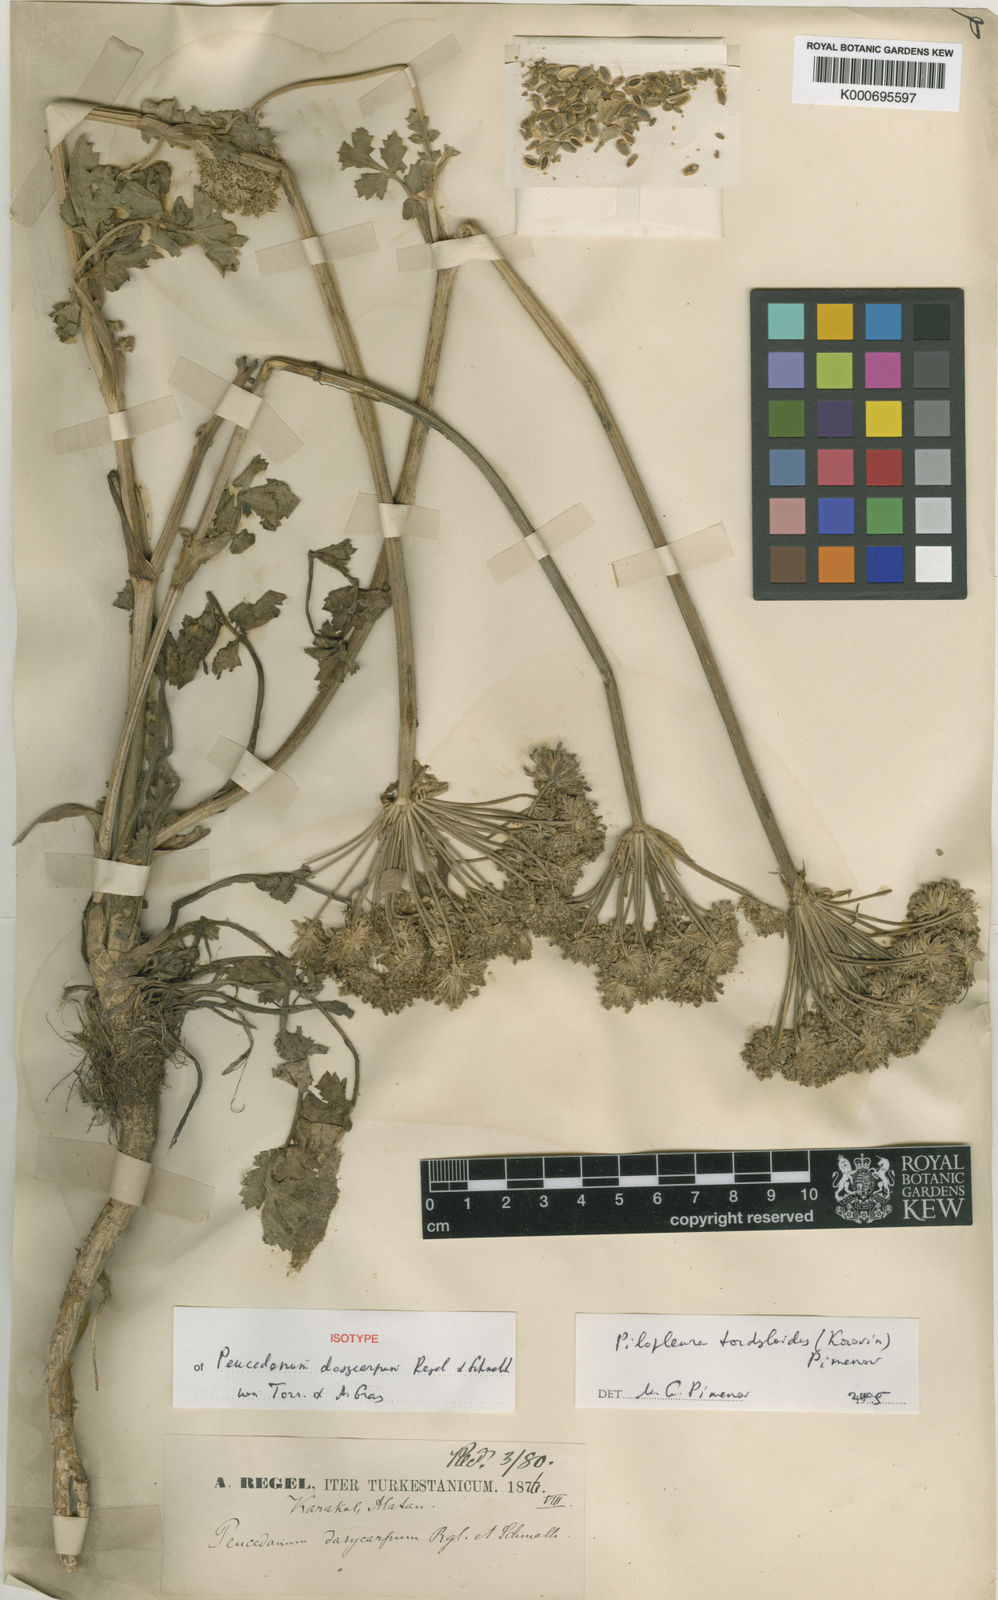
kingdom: Plantae
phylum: Tracheophyta
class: Magnoliopsida
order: Apiales
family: Apiaceae
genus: Lomatium
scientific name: Lomatium dasycarpum
